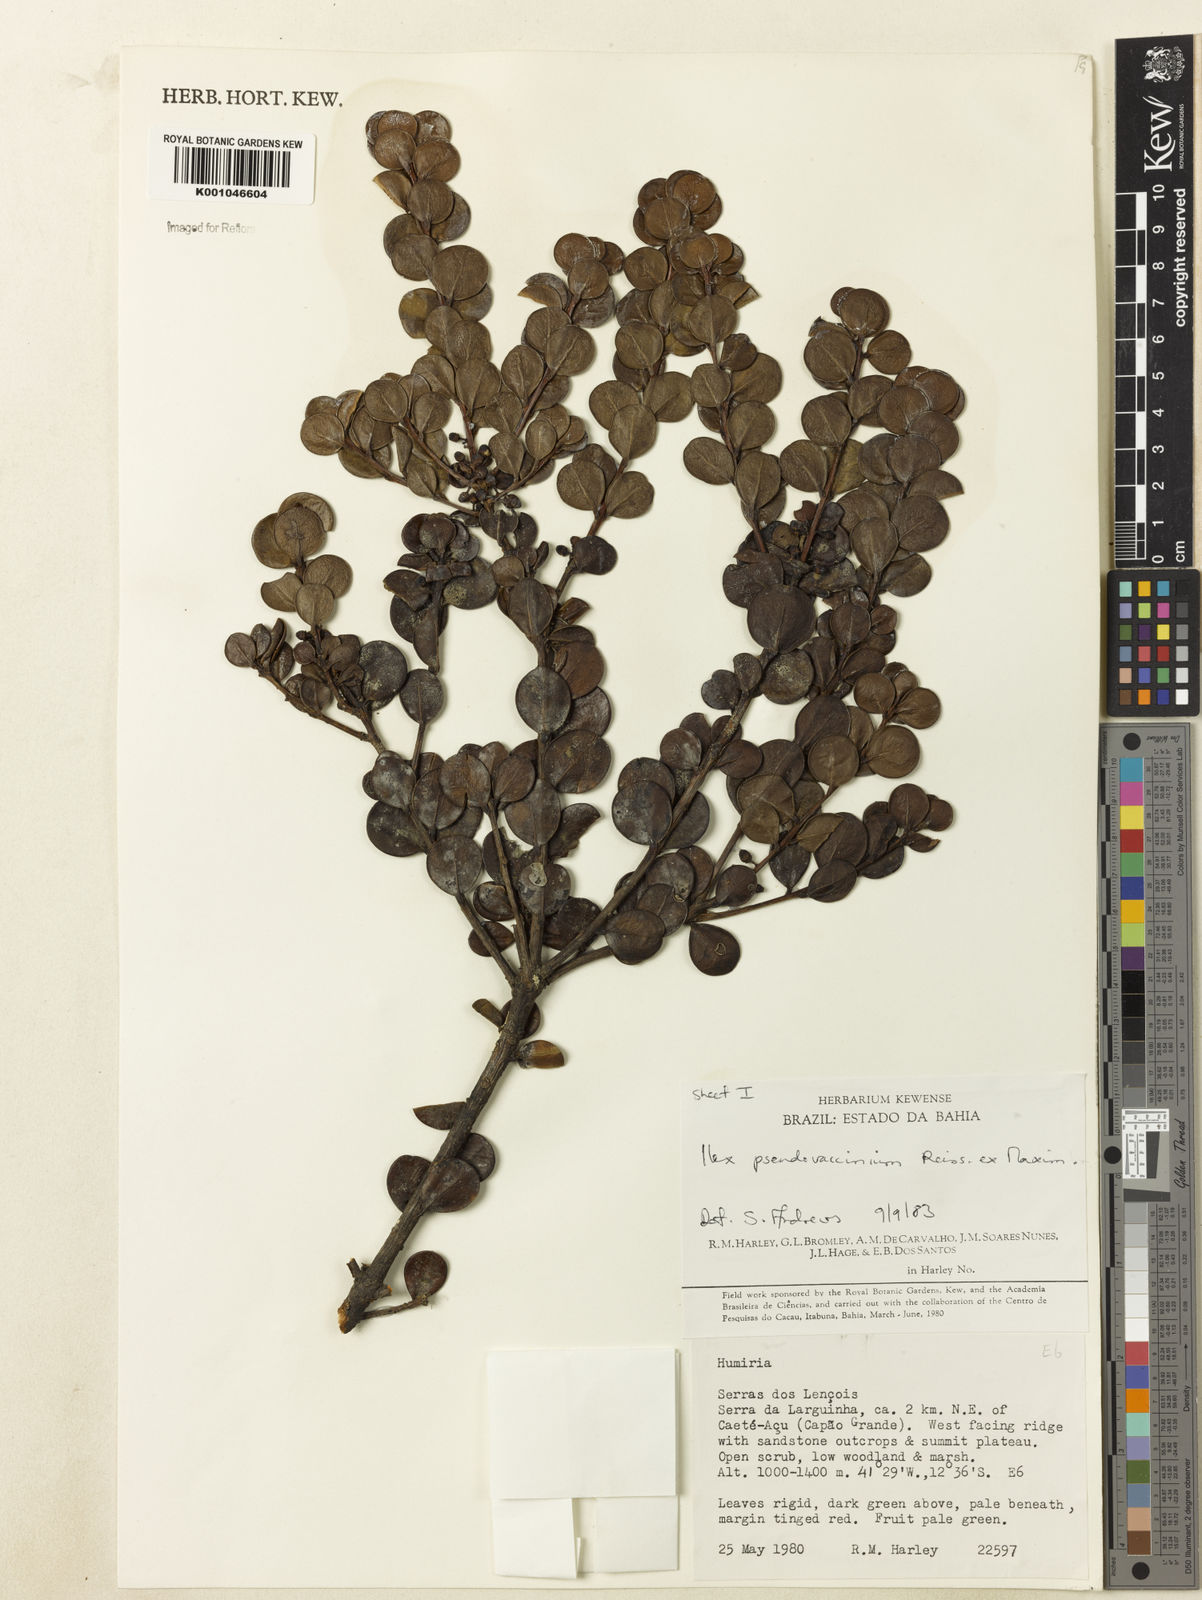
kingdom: Plantae
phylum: Tracheophyta
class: Magnoliopsida
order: Aquifoliales
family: Aquifoliaceae
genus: Ilex
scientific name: Ilex pseudovaccinium
